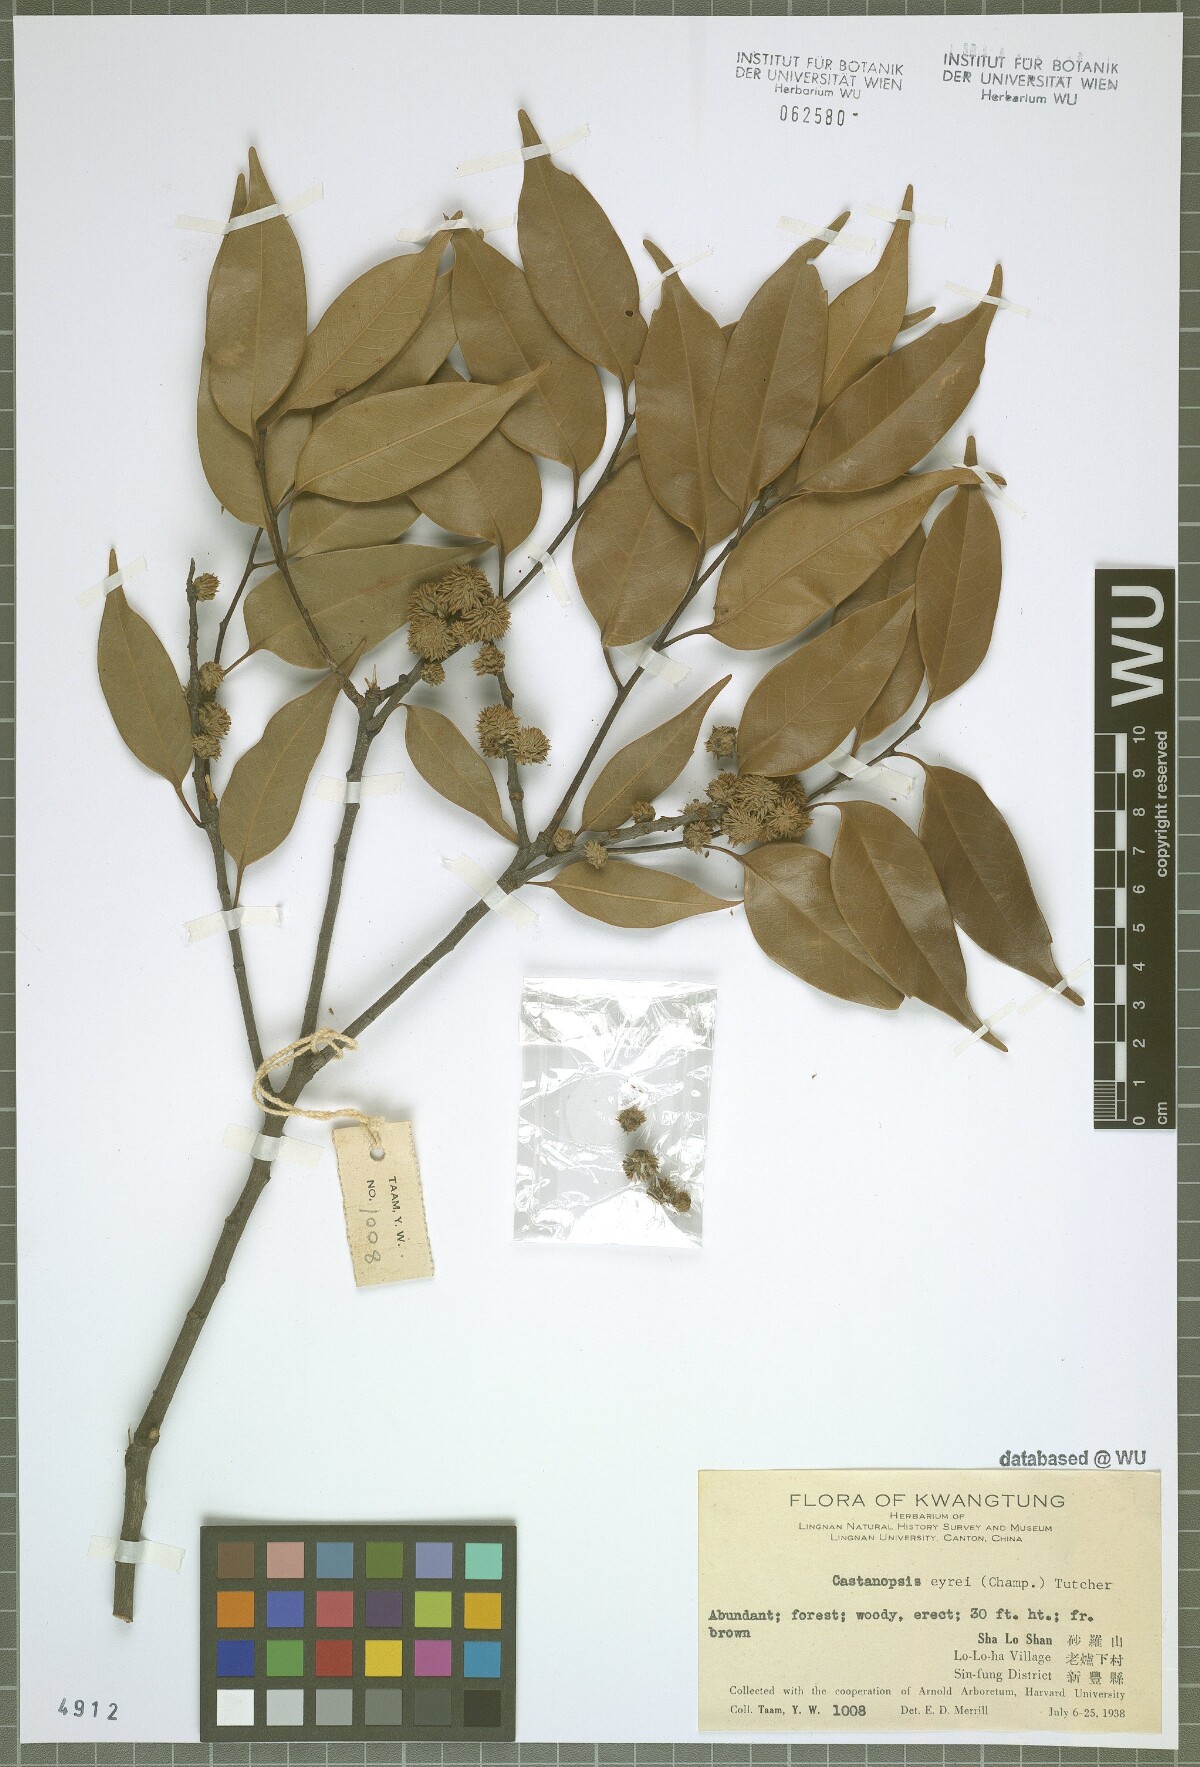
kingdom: Plantae
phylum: Tracheophyta
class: Magnoliopsida
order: Fagales
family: Fagaceae
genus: Castanopsis
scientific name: Castanopsis eyrei
